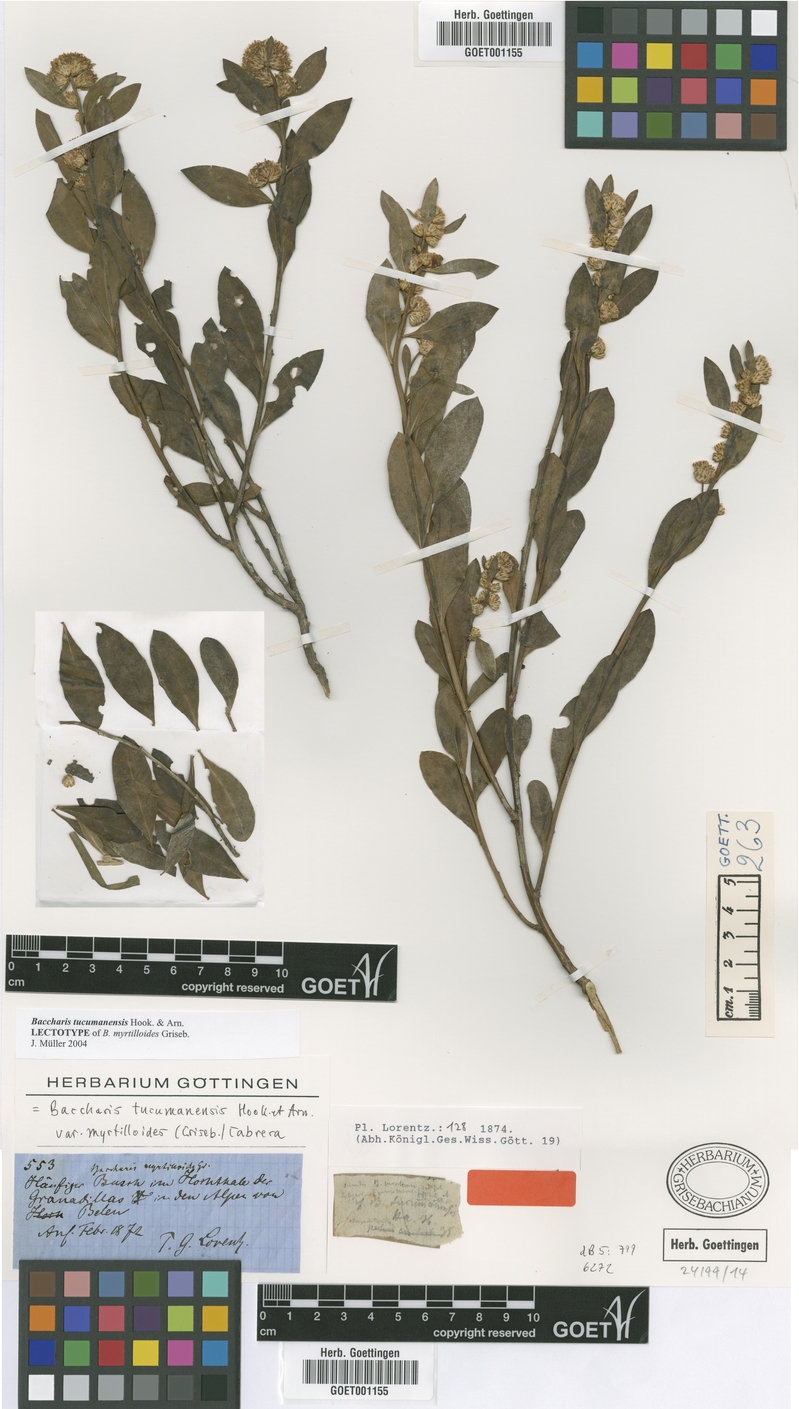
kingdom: Plantae
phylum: Tracheophyta
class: Magnoliopsida
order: Asterales
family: Asteraceae
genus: Baccharis
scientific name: Baccharis tucumanensis
